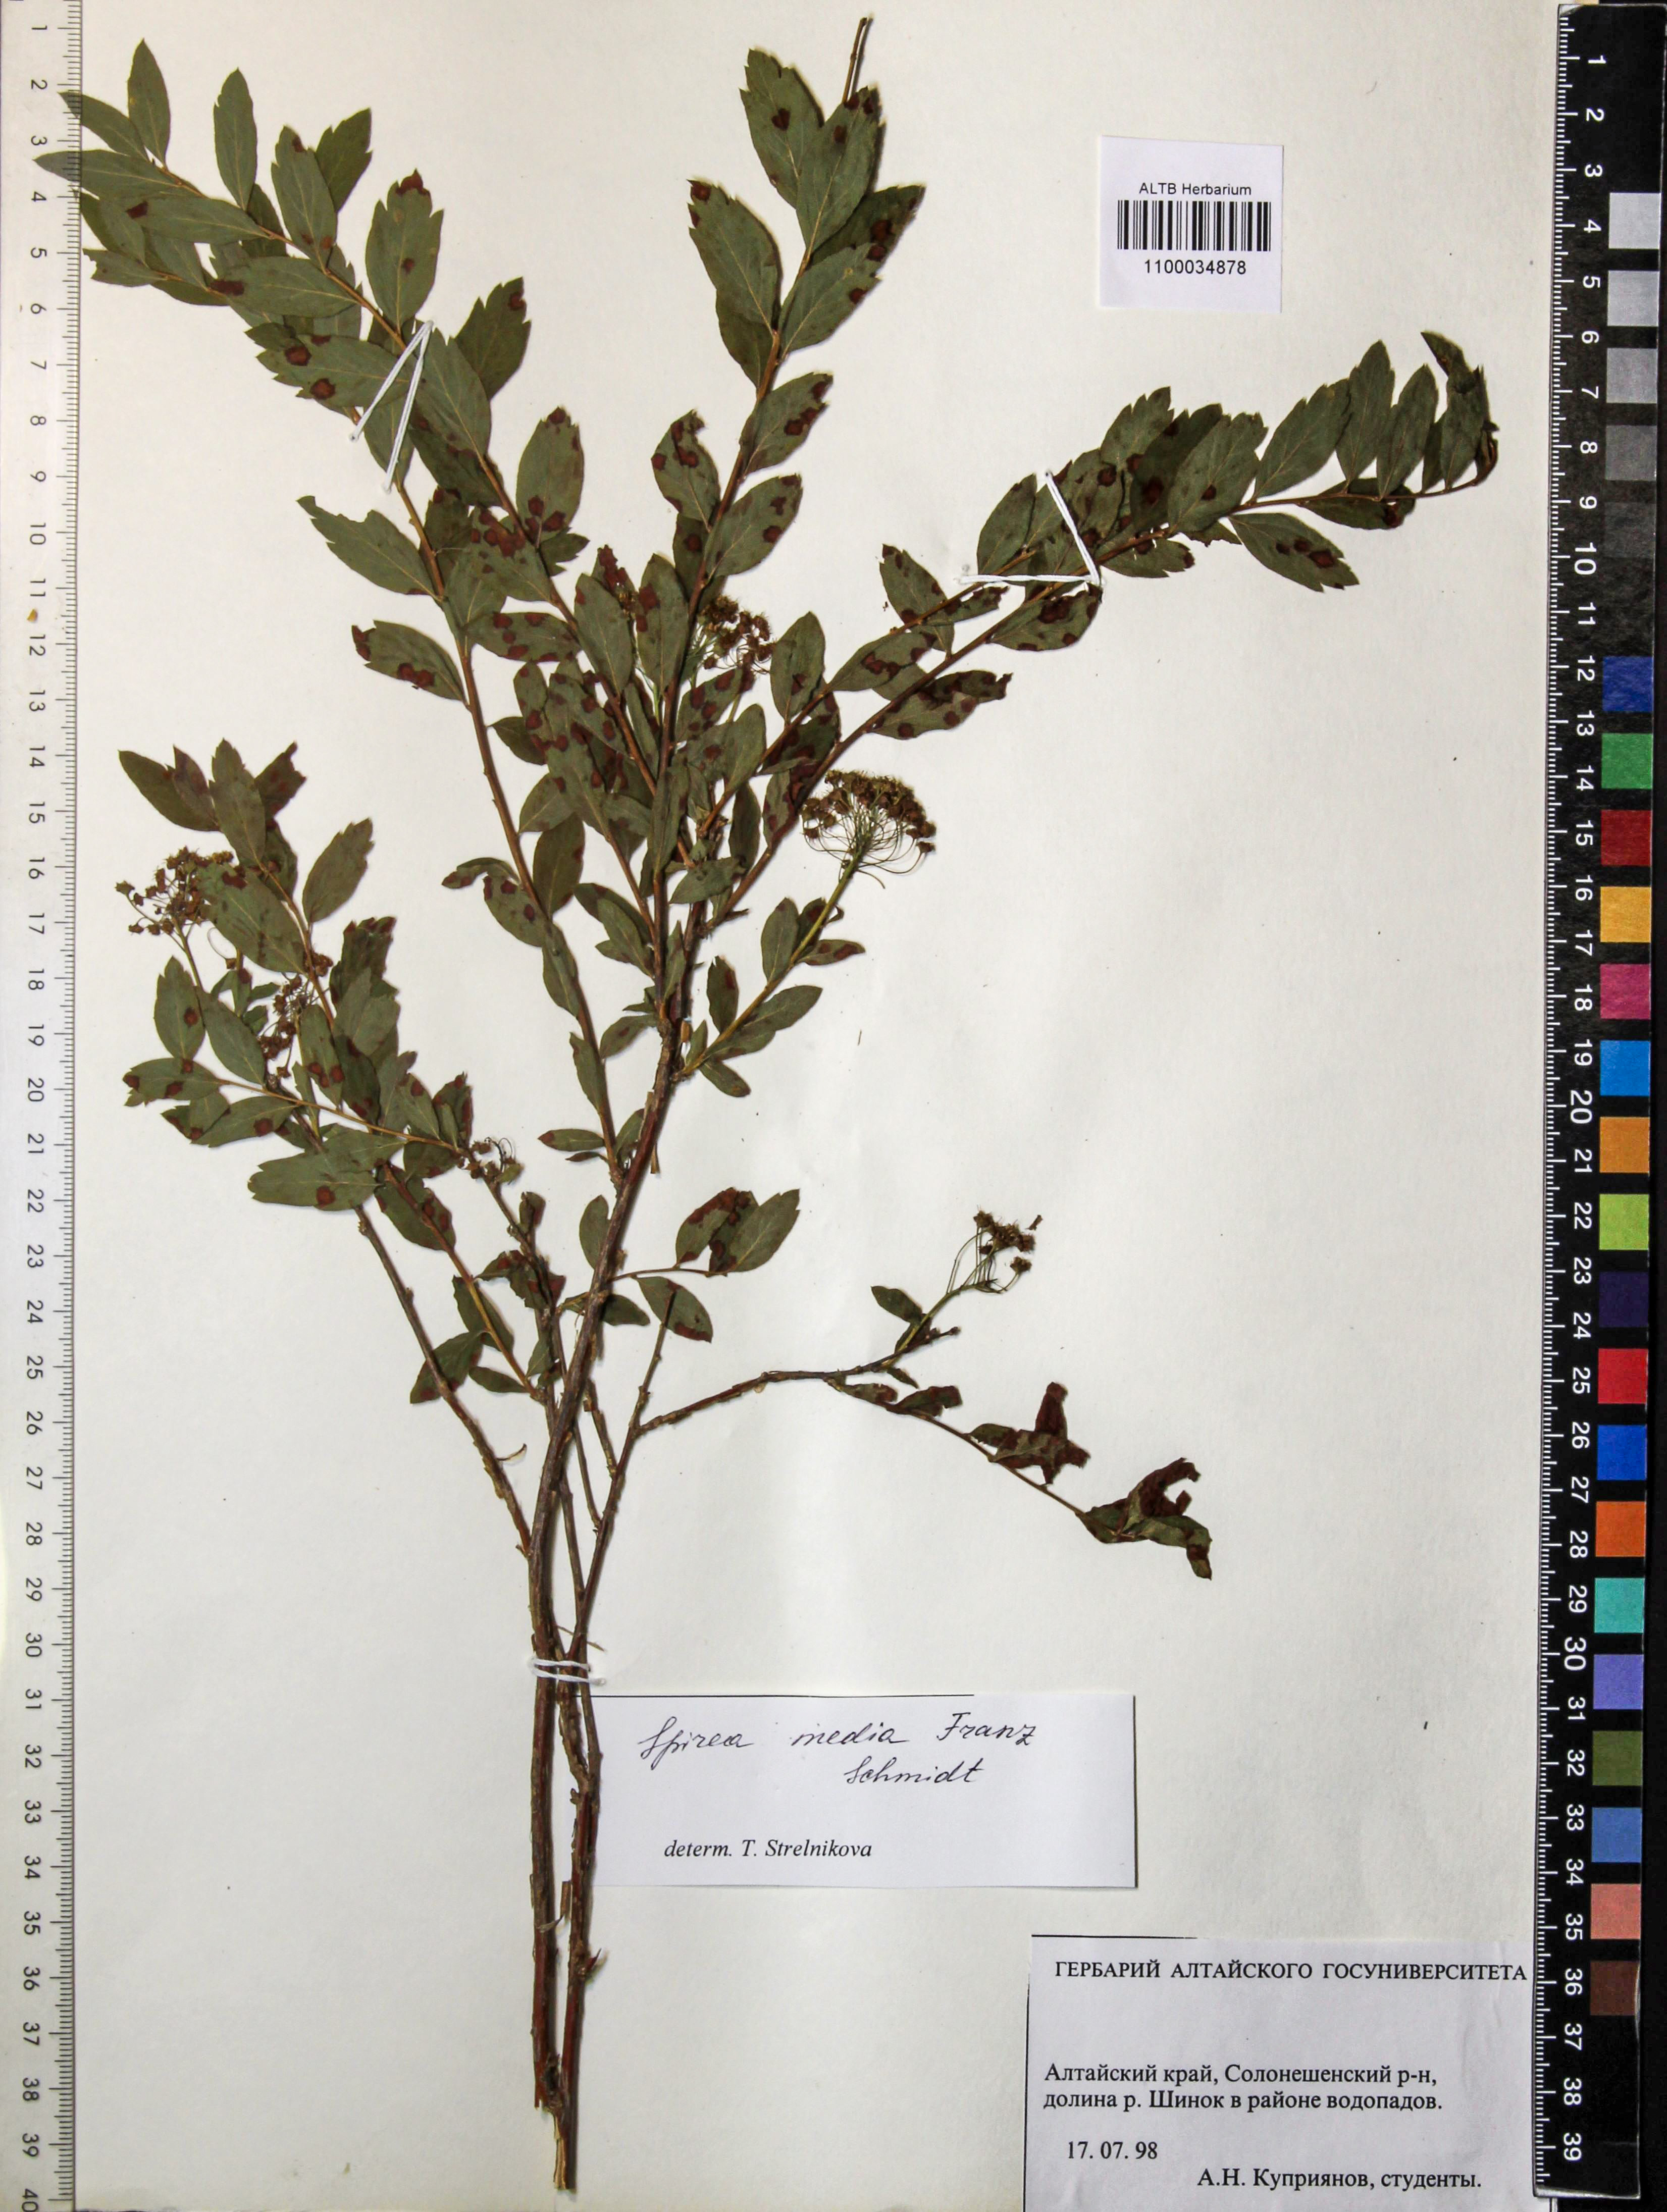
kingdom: Plantae
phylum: Tracheophyta
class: Magnoliopsida
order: Rosales
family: Rosaceae
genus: Spiraea
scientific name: Spiraea media
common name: Russian spiraea
